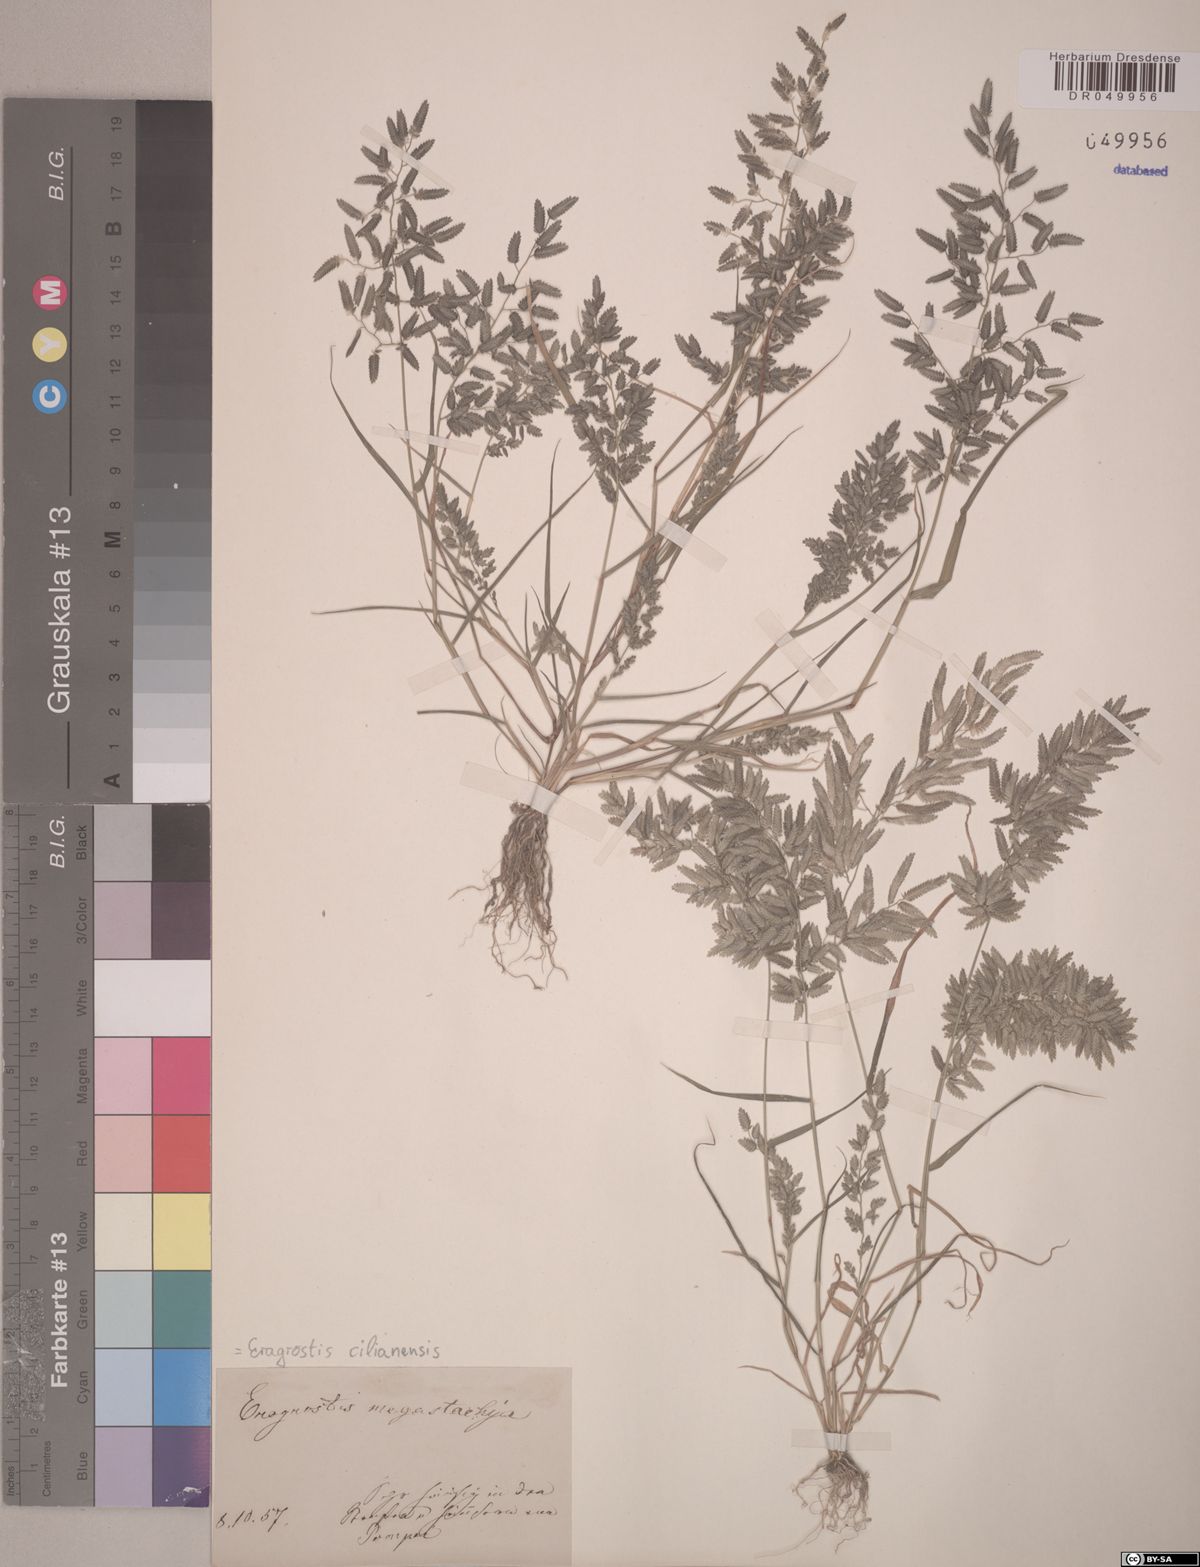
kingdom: Plantae
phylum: Tracheophyta
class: Liliopsida
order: Poales
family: Poaceae
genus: Eragrostis
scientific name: Eragrostis cilianensis
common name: Stinkgrass
